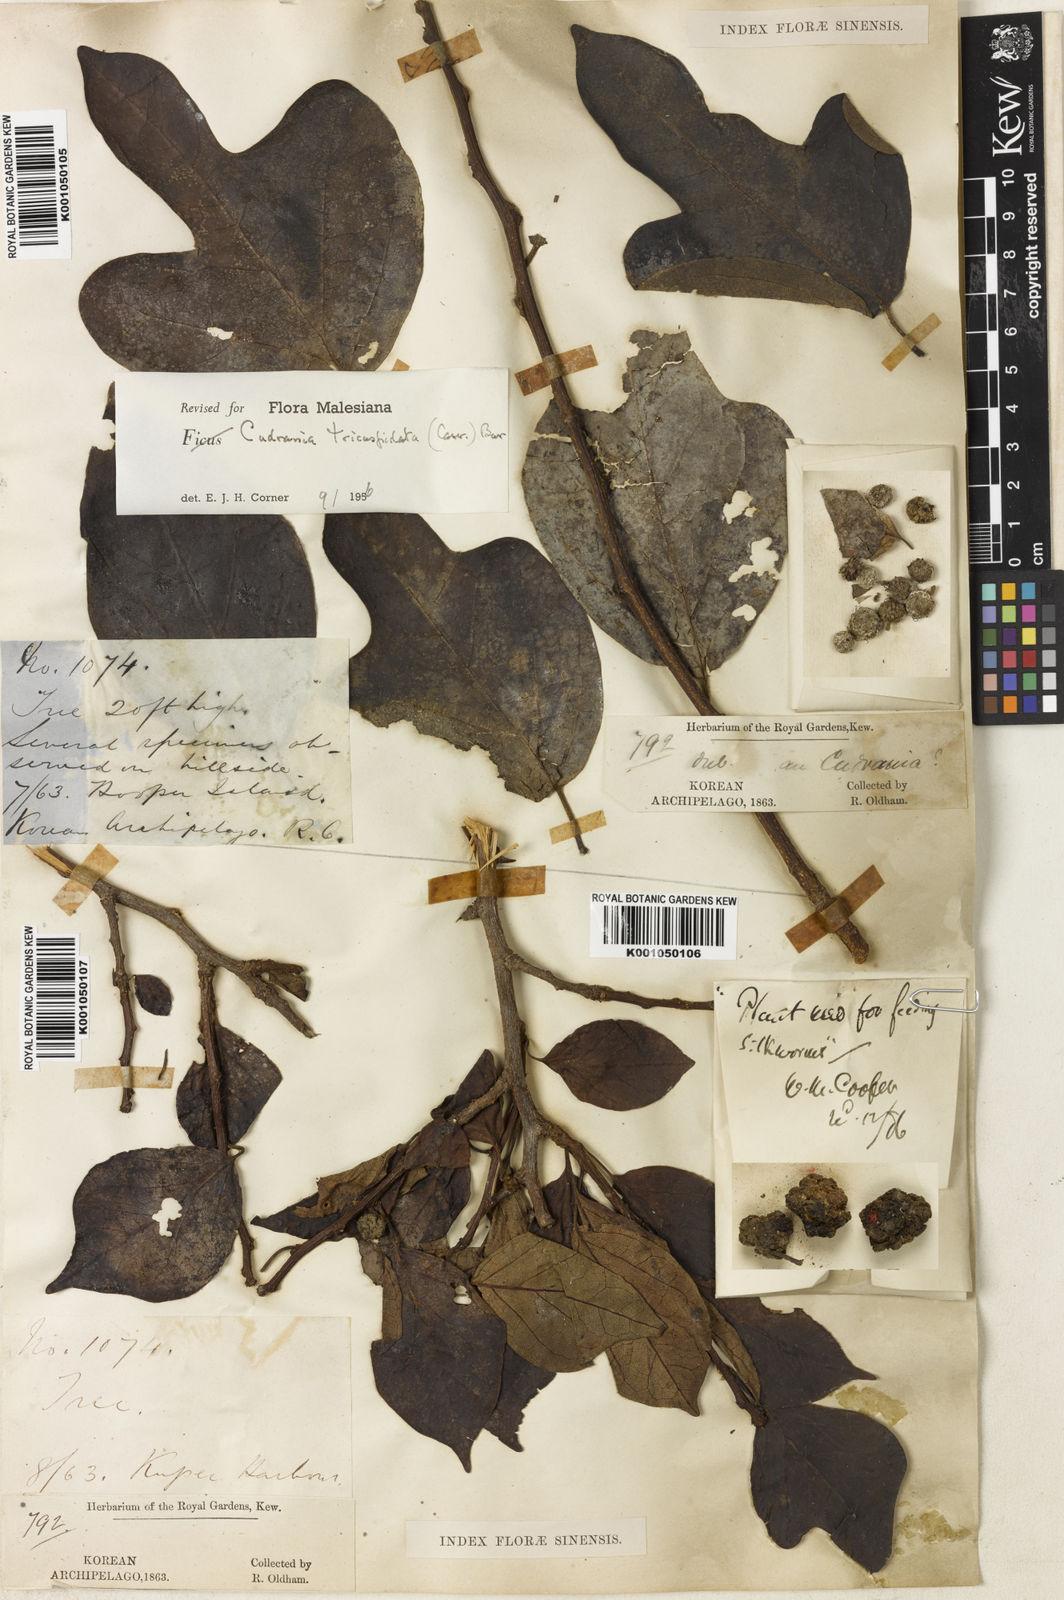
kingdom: Plantae
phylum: Tracheophyta
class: Magnoliopsida
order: Rosales
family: Moraceae
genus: Maclura
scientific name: Maclura
